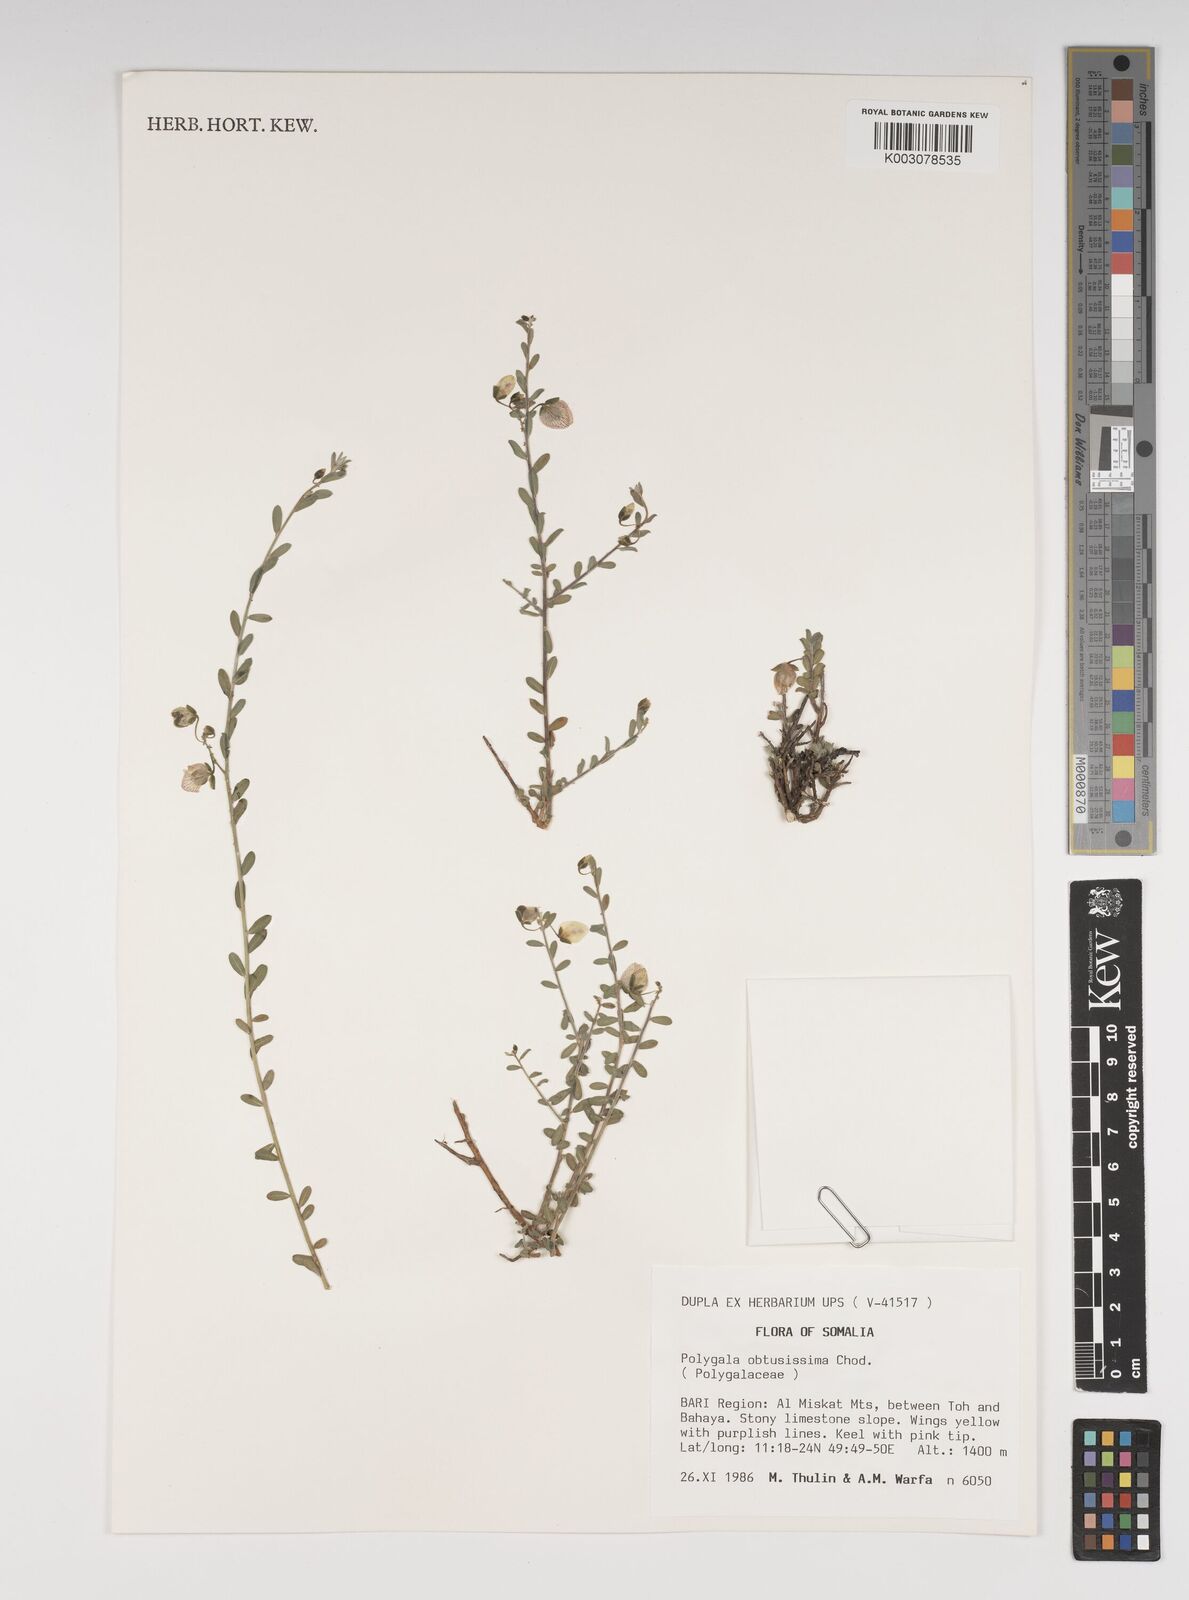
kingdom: Plantae
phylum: Tracheophyta
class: Magnoliopsida
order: Fabales
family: Polygalaceae
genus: Polygala
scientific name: Polygala senensis
